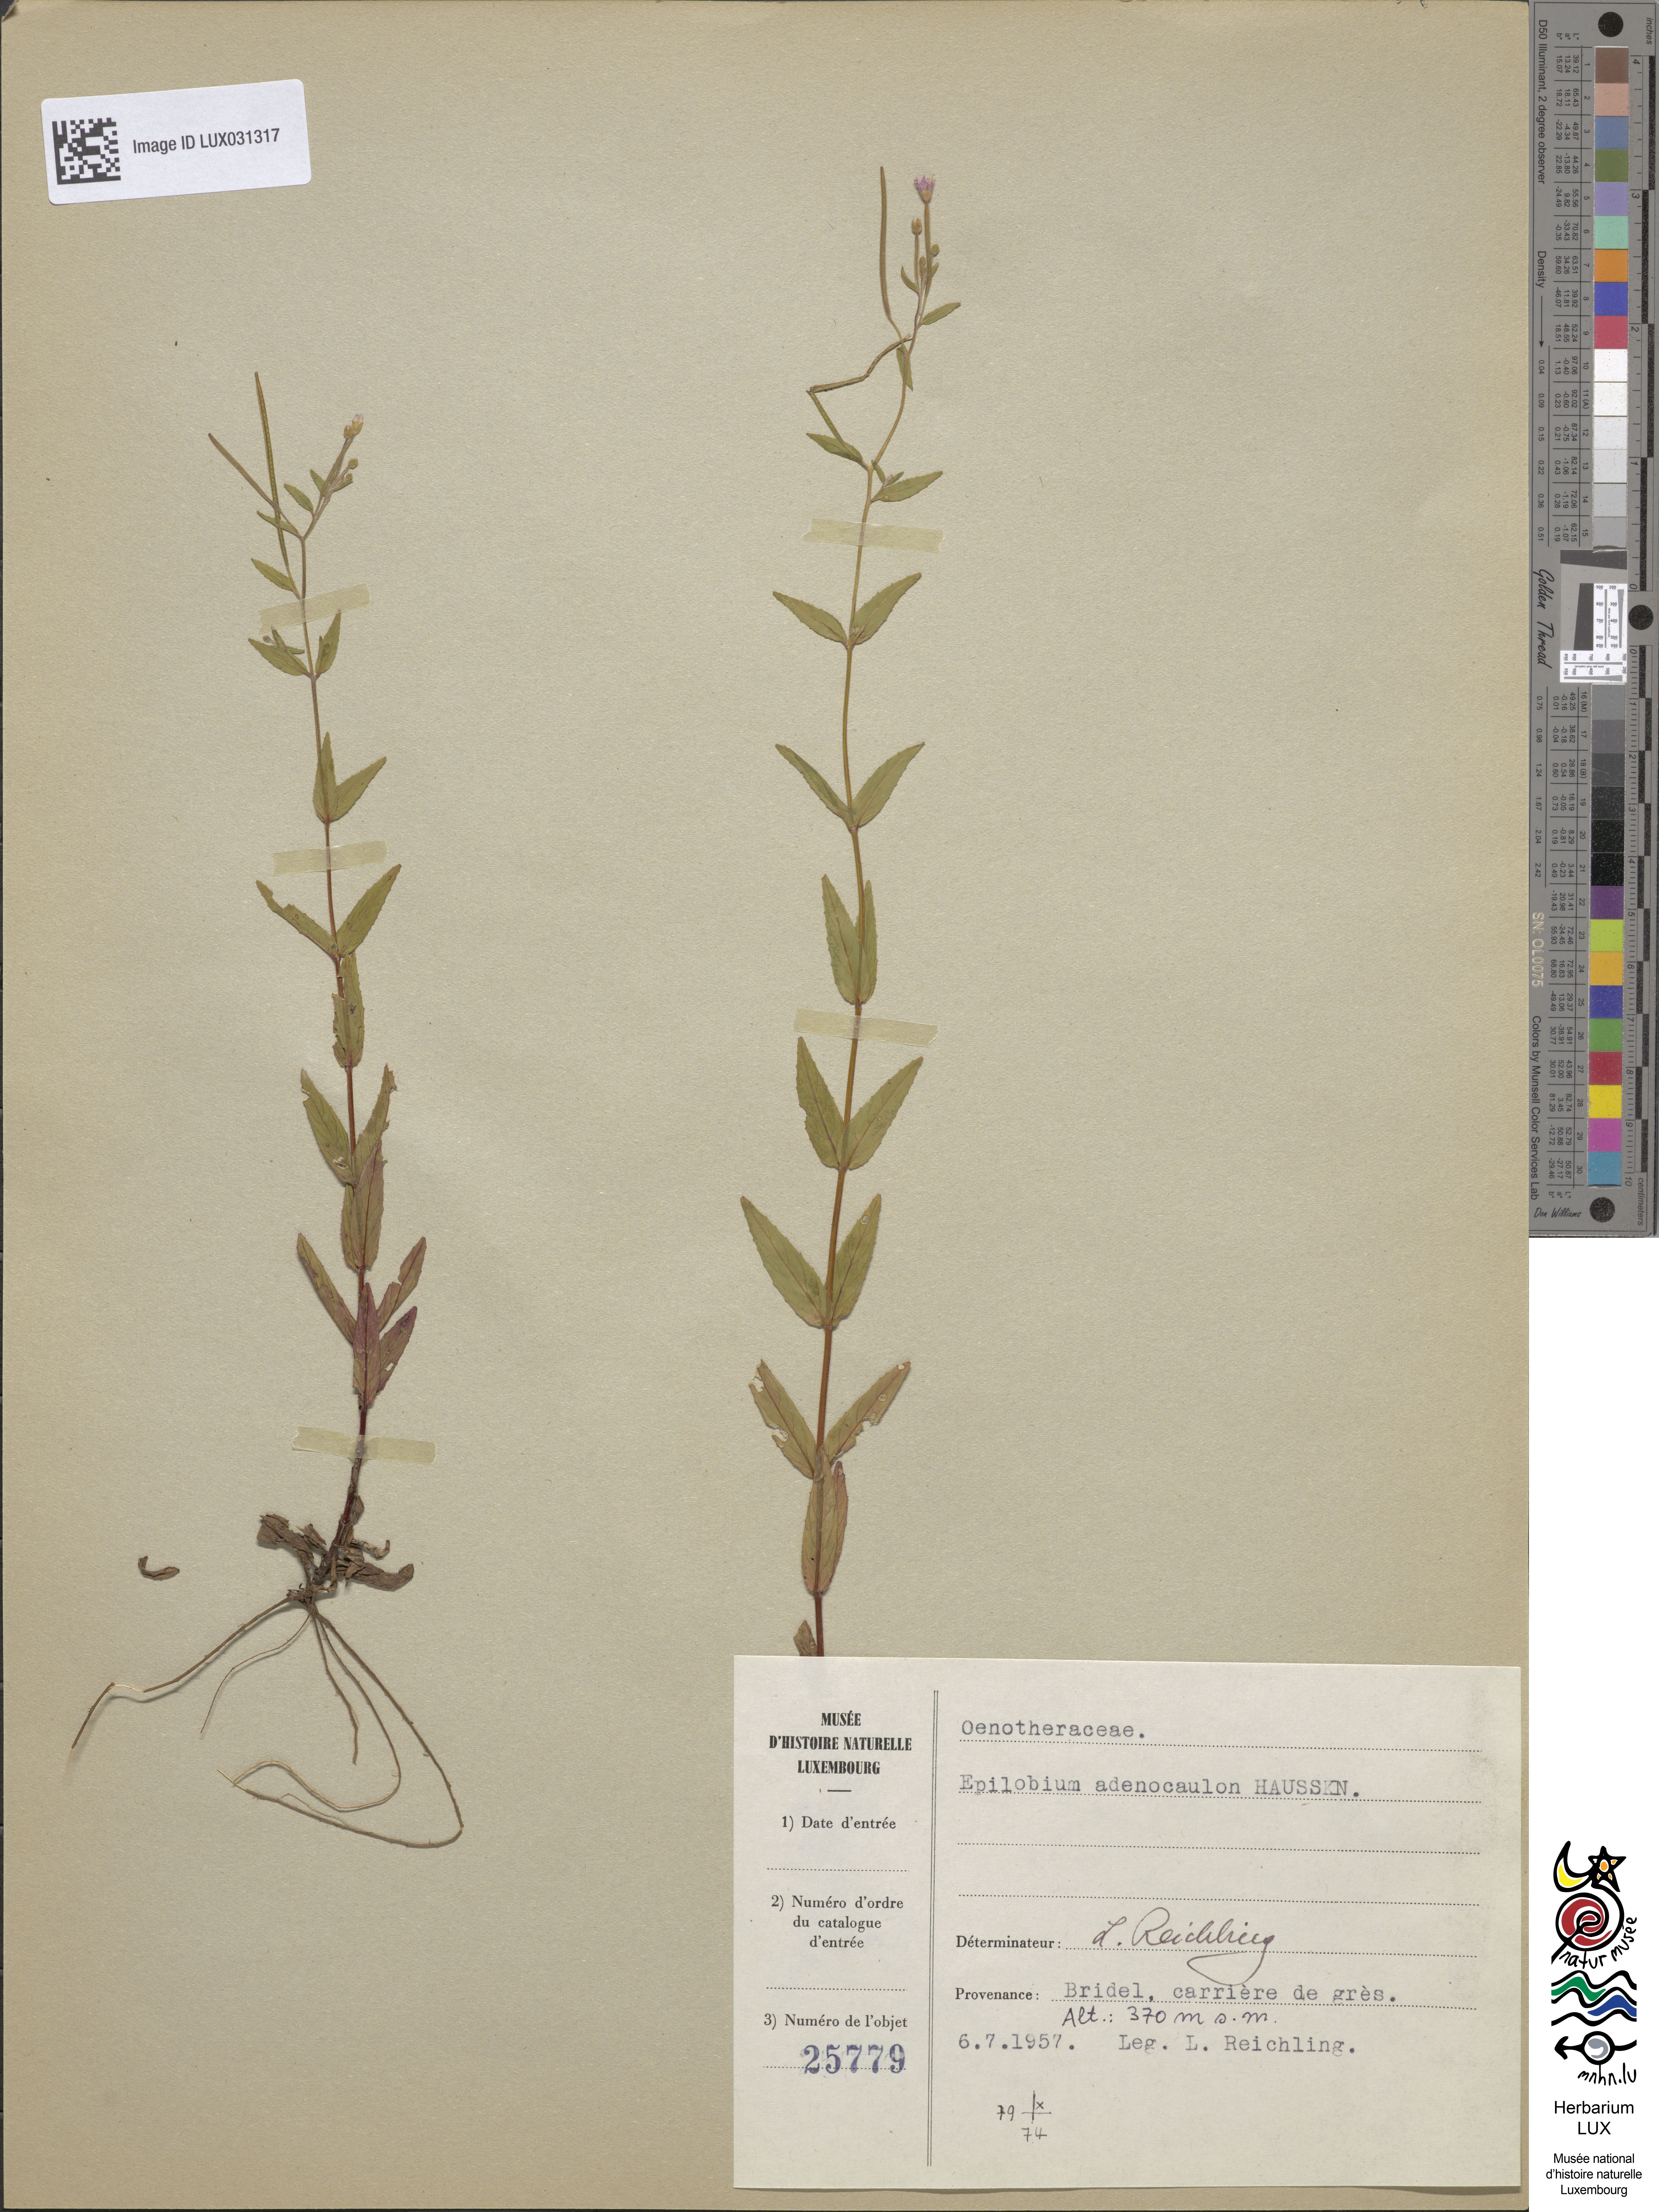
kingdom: Plantae
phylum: Tracheophyta
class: Magnoliopsida
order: Myrtales
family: Onagraceae
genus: Epilobium
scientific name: Epilobium ciliatum
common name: American willowherb
